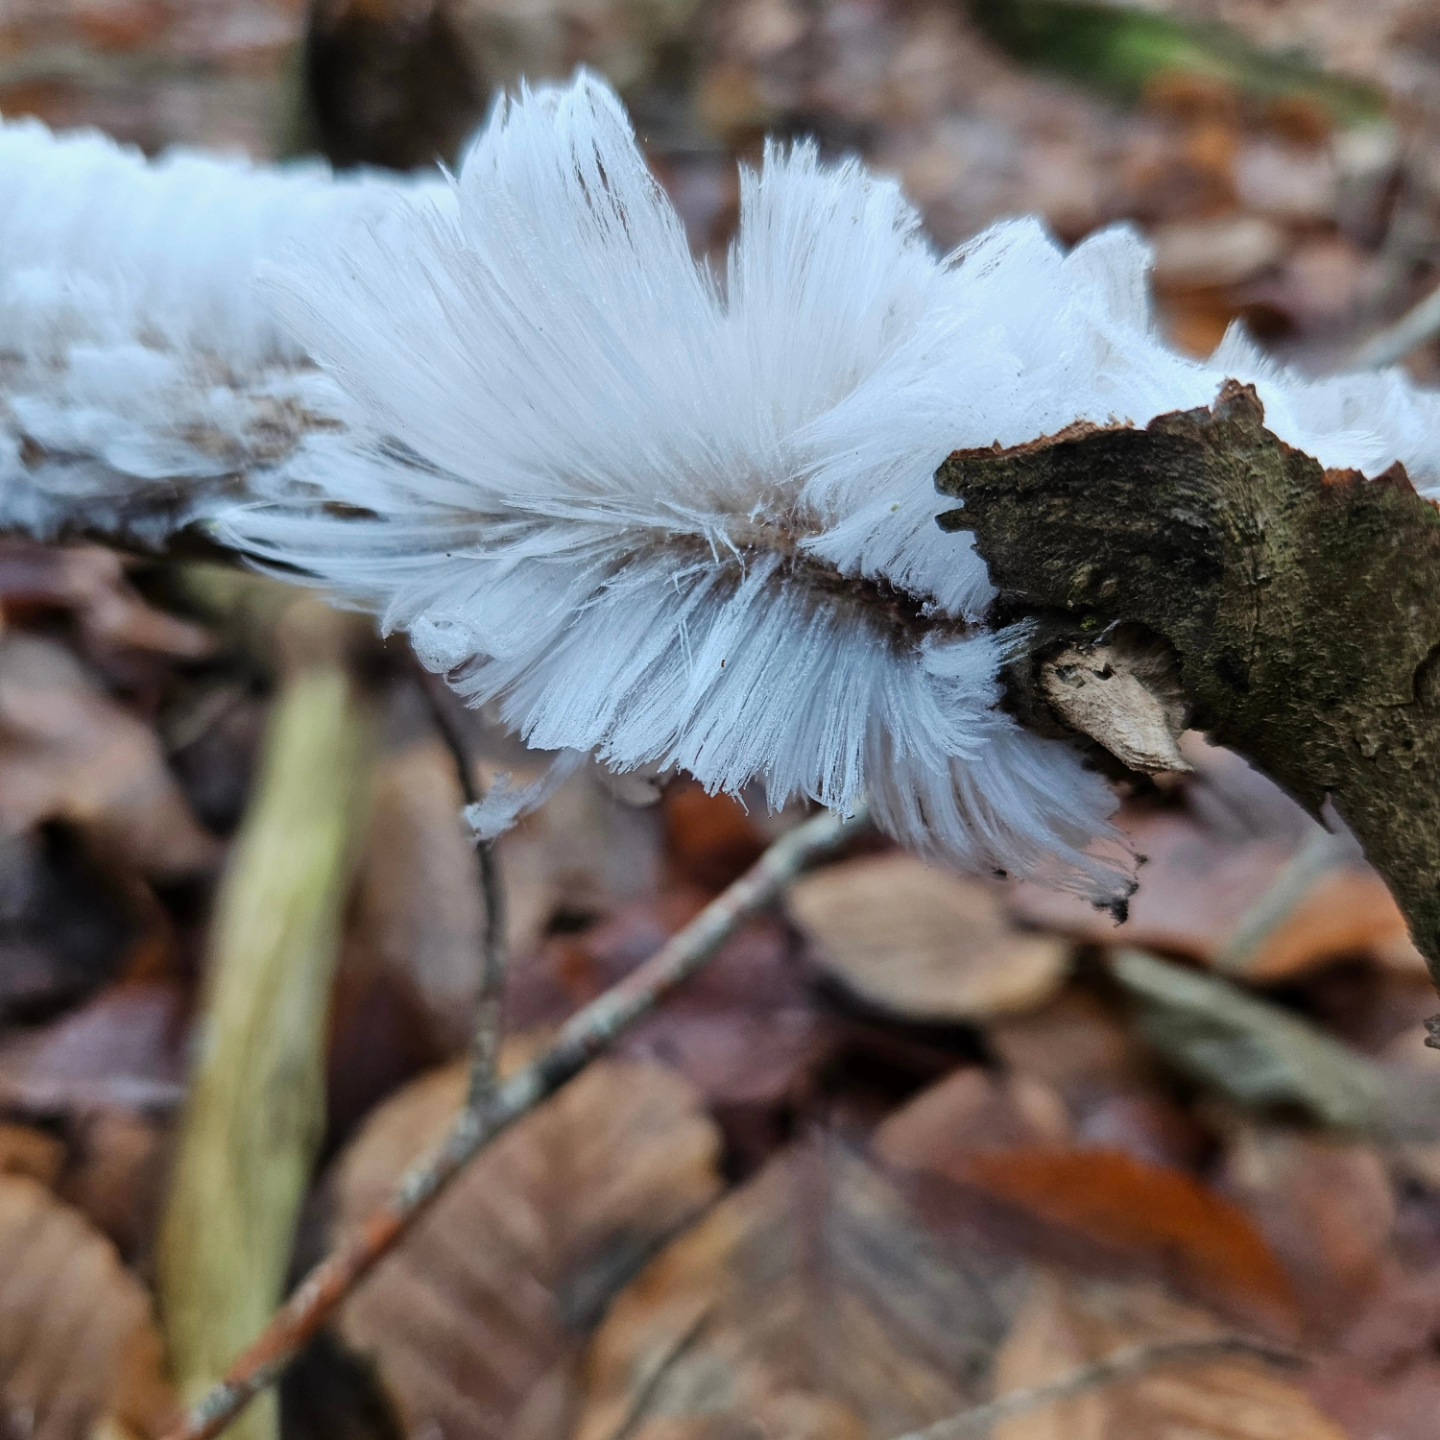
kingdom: Fungi
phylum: Basidiomycota
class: Tremellomycetes
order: Tremellales
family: Exidiaceae
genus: Exidiopsis
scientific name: Exidiopsis effusa
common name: smuk bævrehinde
